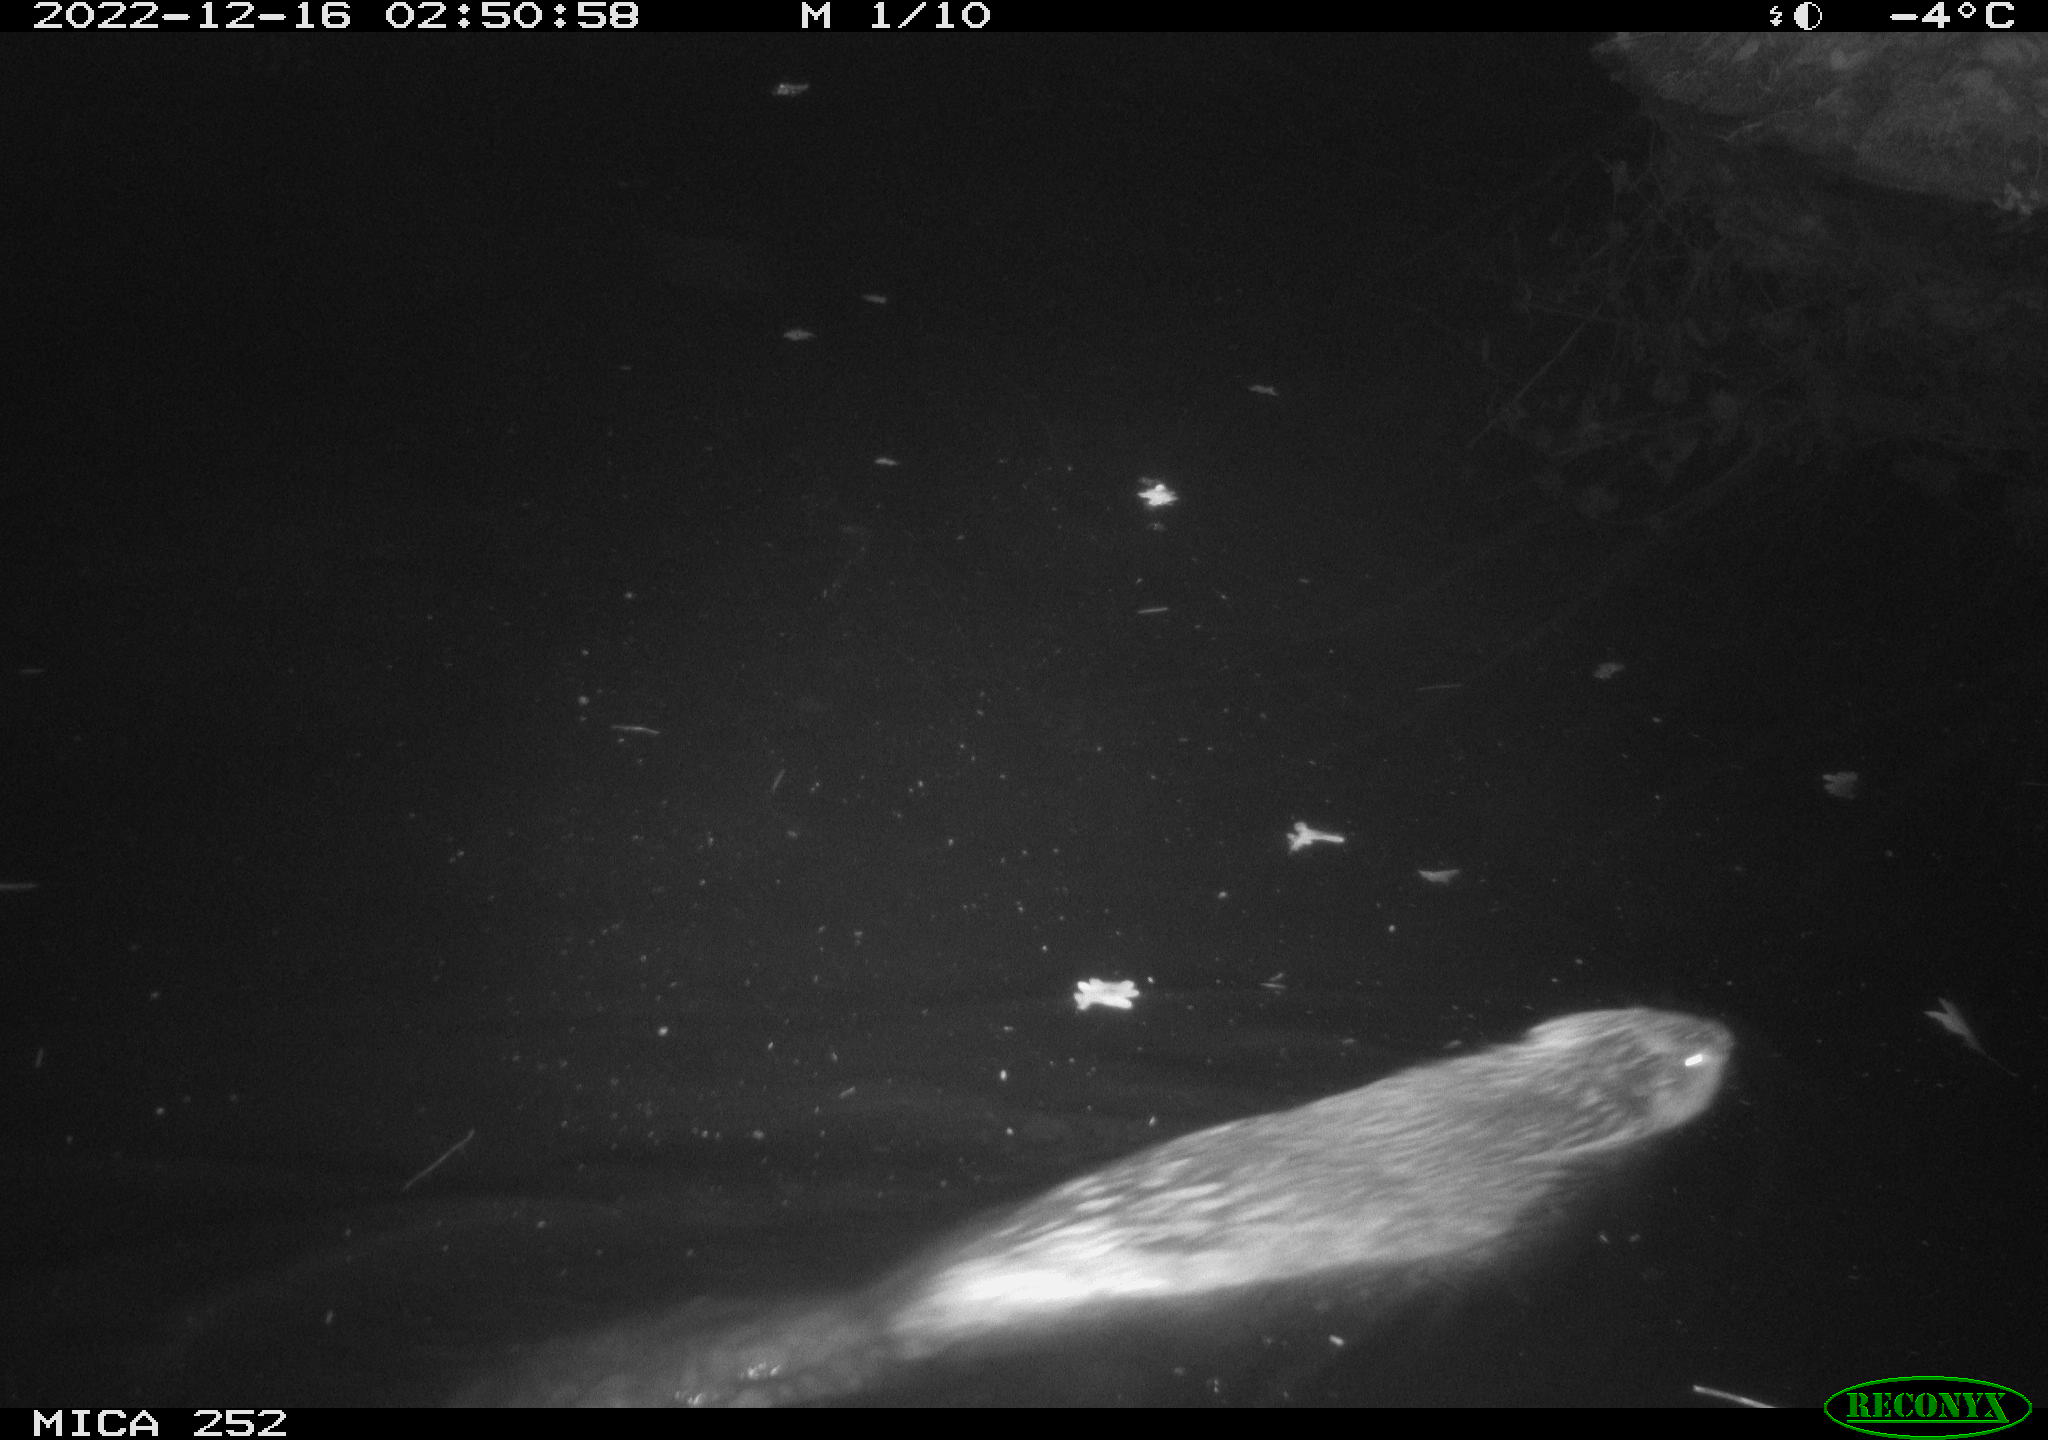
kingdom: Animalia
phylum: Chordata
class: Mammalia
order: Rodentia
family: Castoridae
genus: Castor
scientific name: Castor fiber
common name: Eurasian beaver
